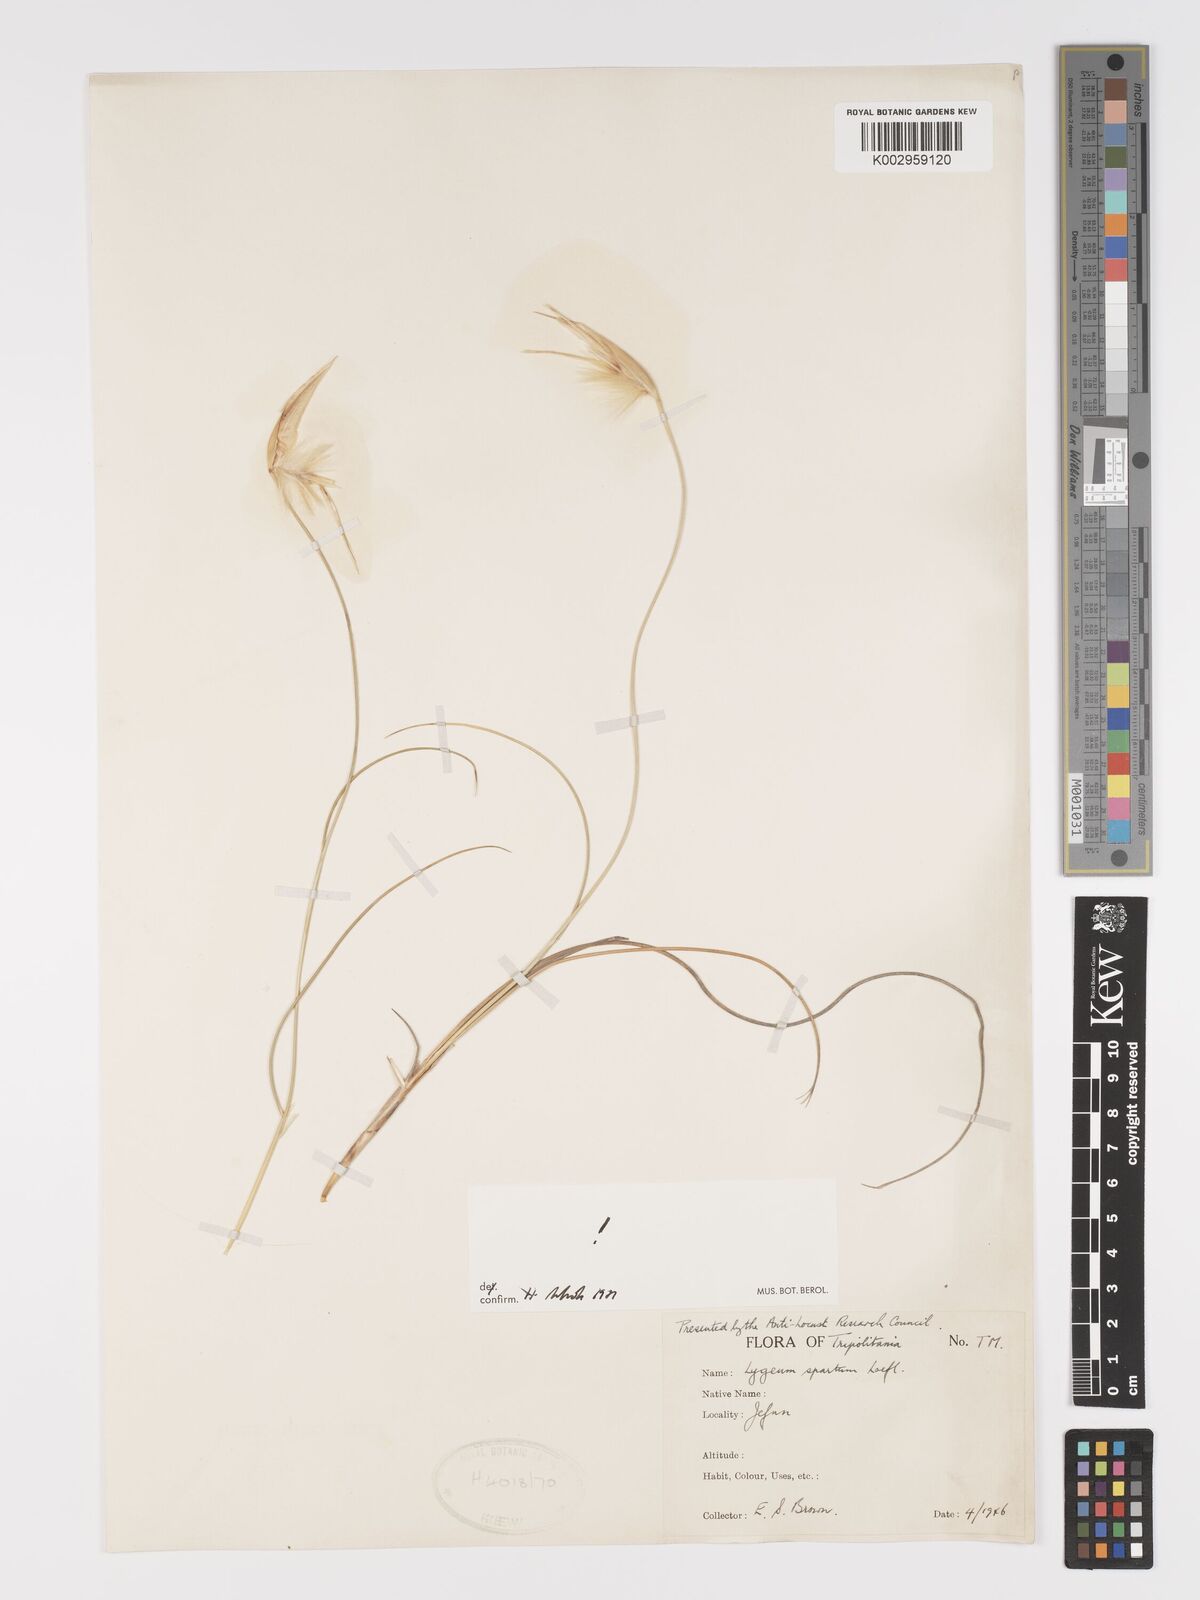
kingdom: Plantae
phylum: Tracheophyta
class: Liliopsida
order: Poales
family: Poaceae
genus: Lygeum
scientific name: Lygeum spartum
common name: Albardine
